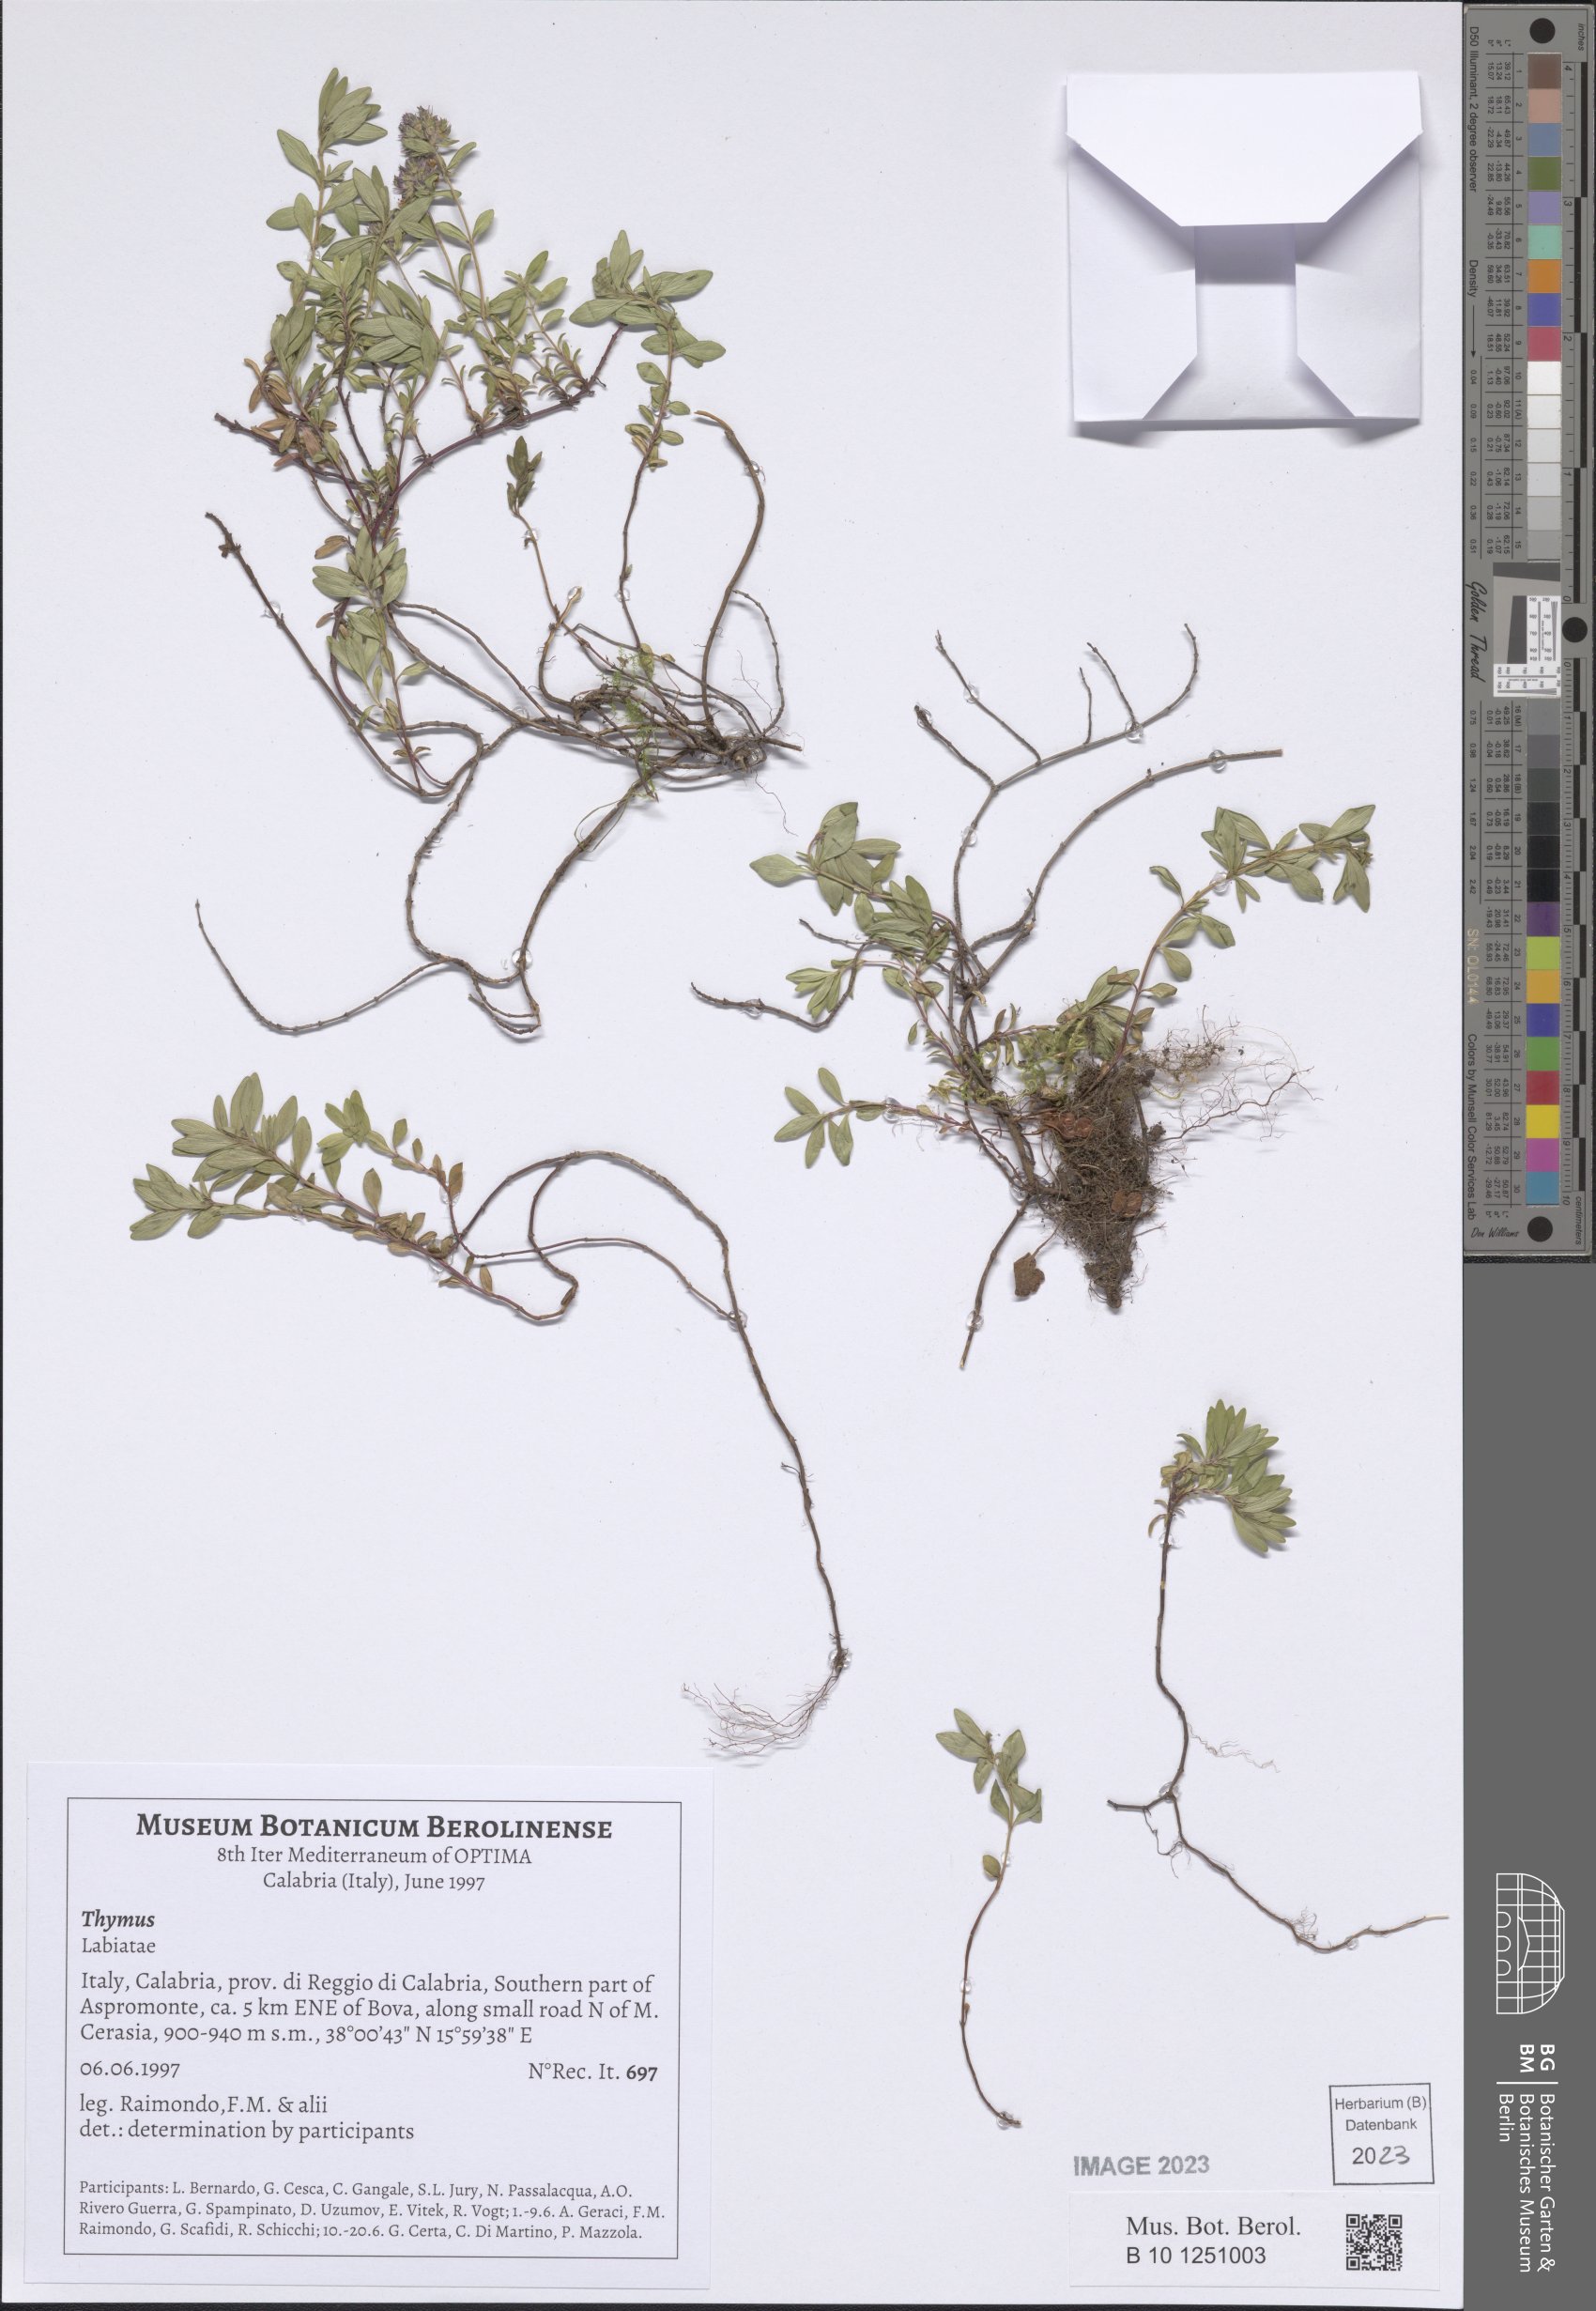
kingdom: Plantae
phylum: Tracheophyta
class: Magnoliopsida
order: Lamiales
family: Lamiaceae
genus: Thymus
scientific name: Thymus
